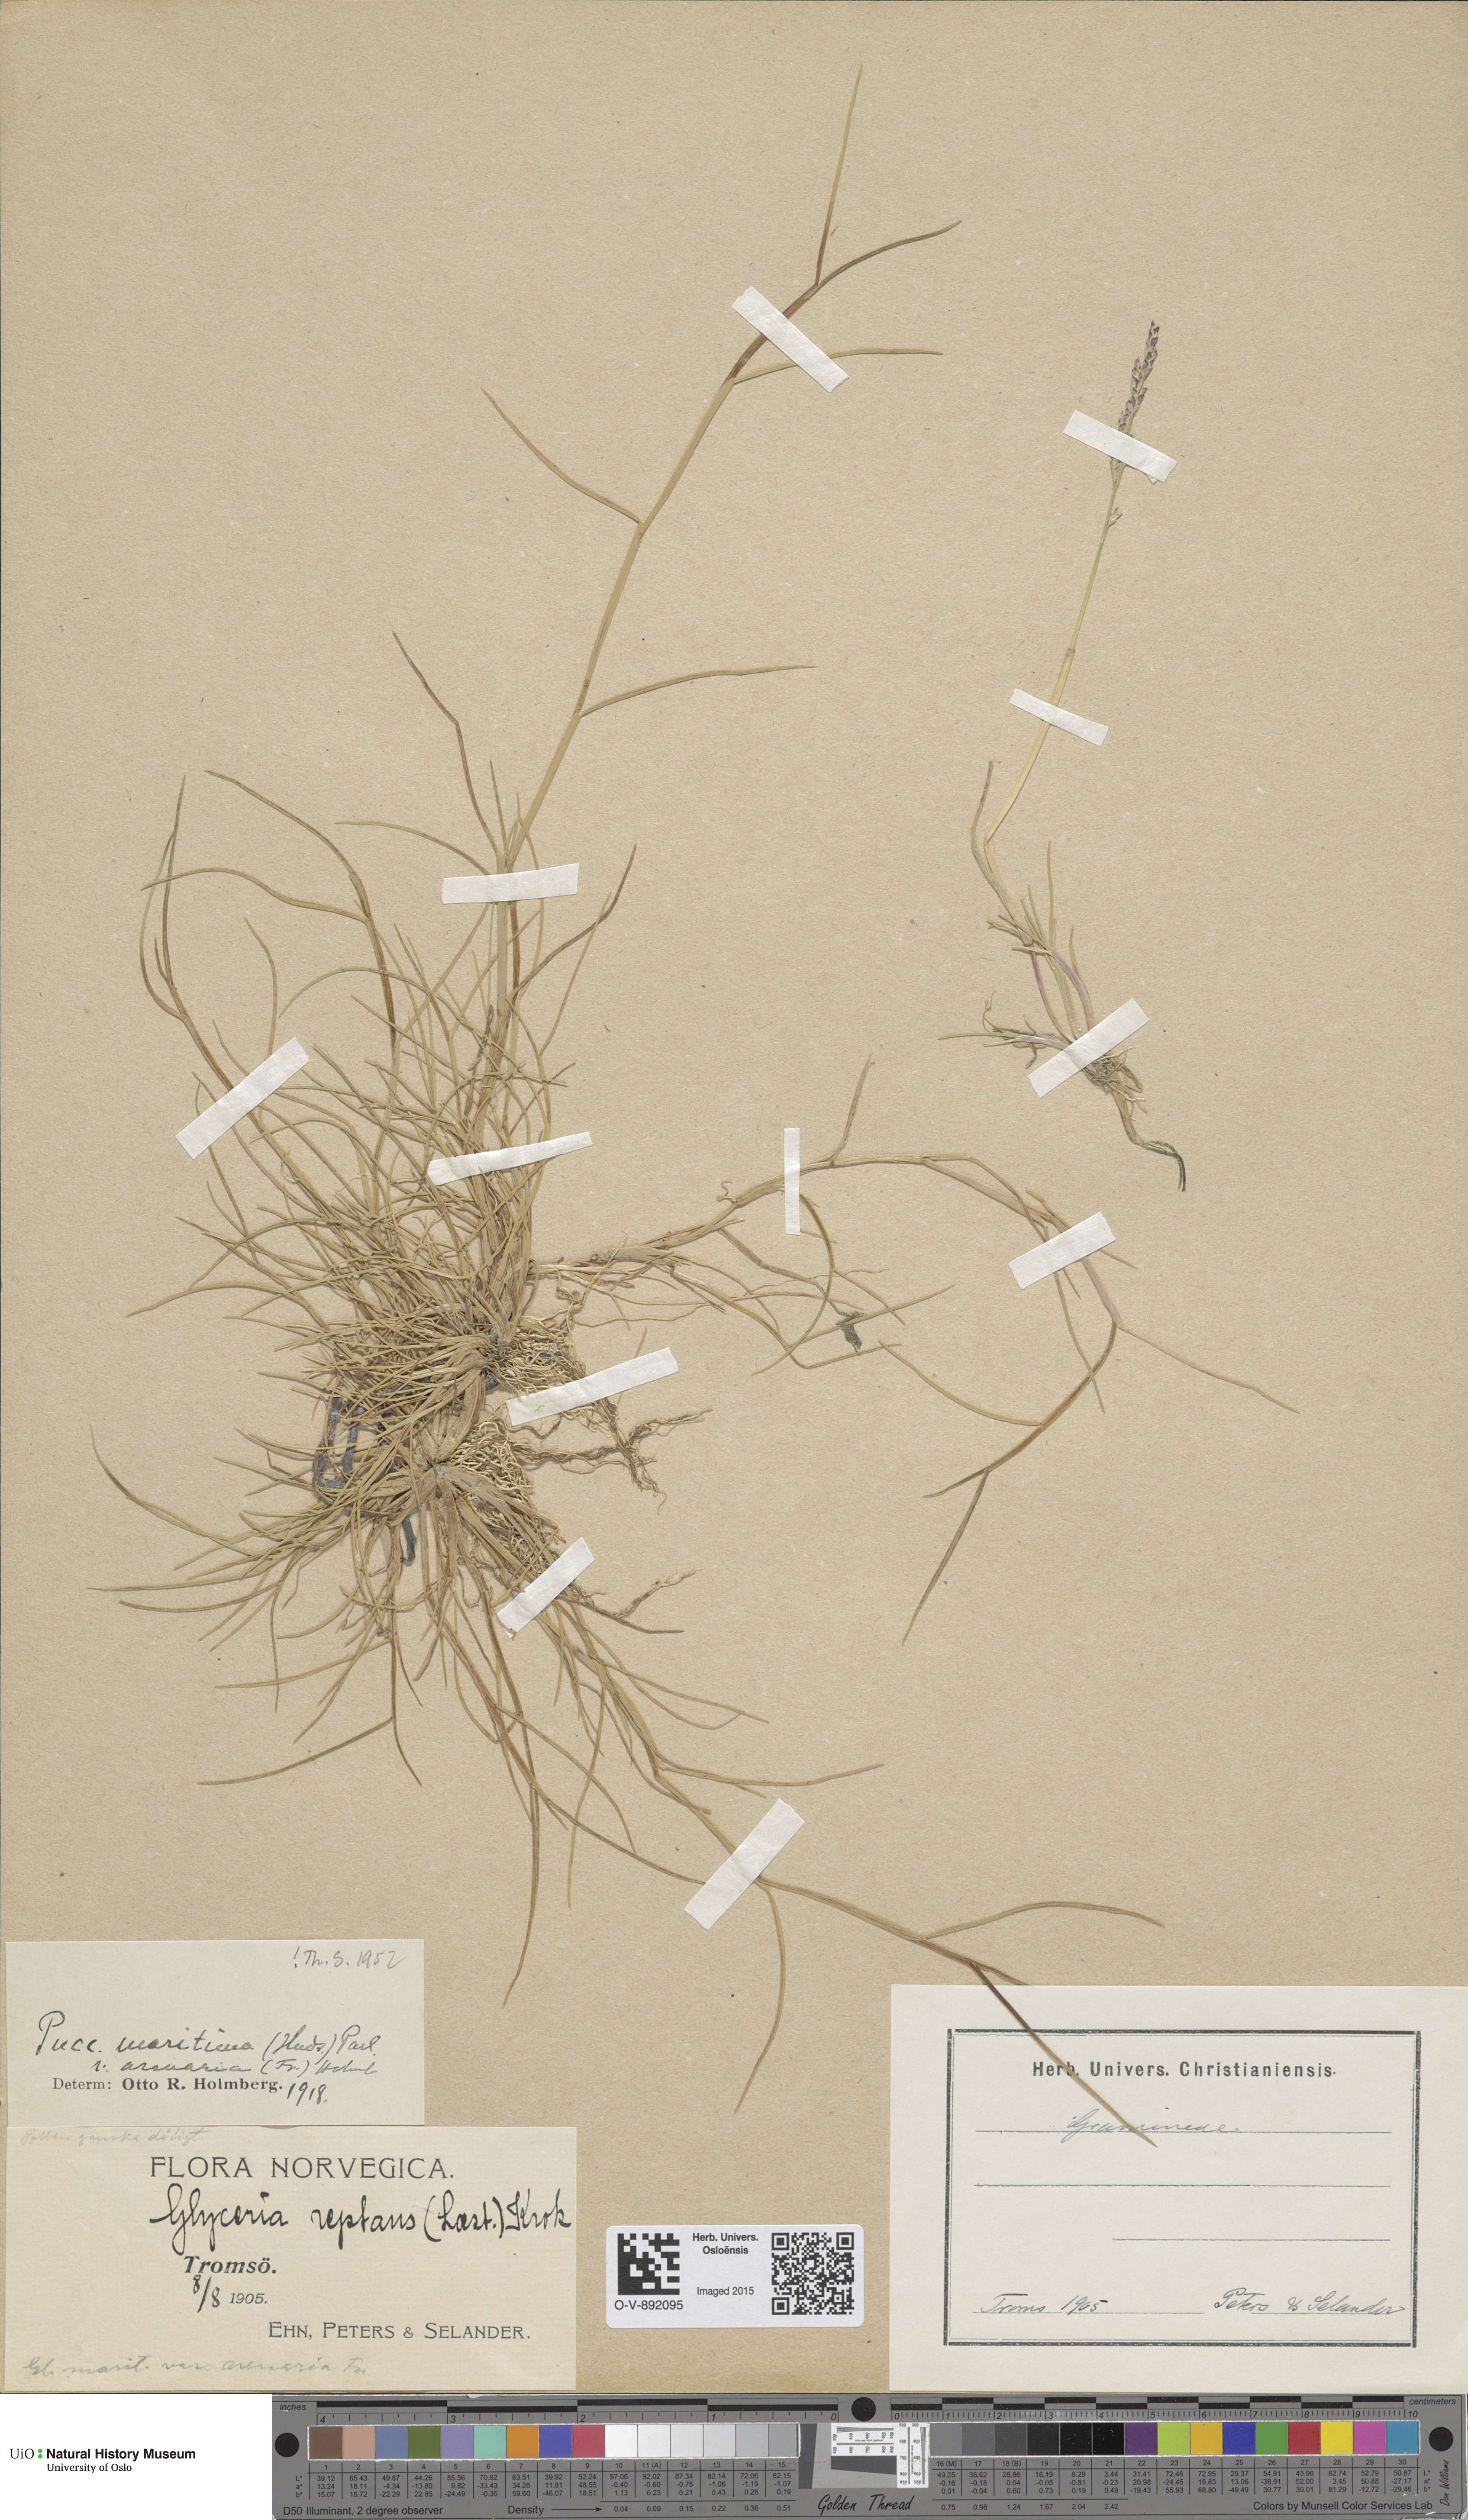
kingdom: Plantae
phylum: Tracheophyta
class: Liliopsida
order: Poales
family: Poaceae
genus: Puccinellia
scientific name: Puccinellia maritima
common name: Common saltmarsh grass
